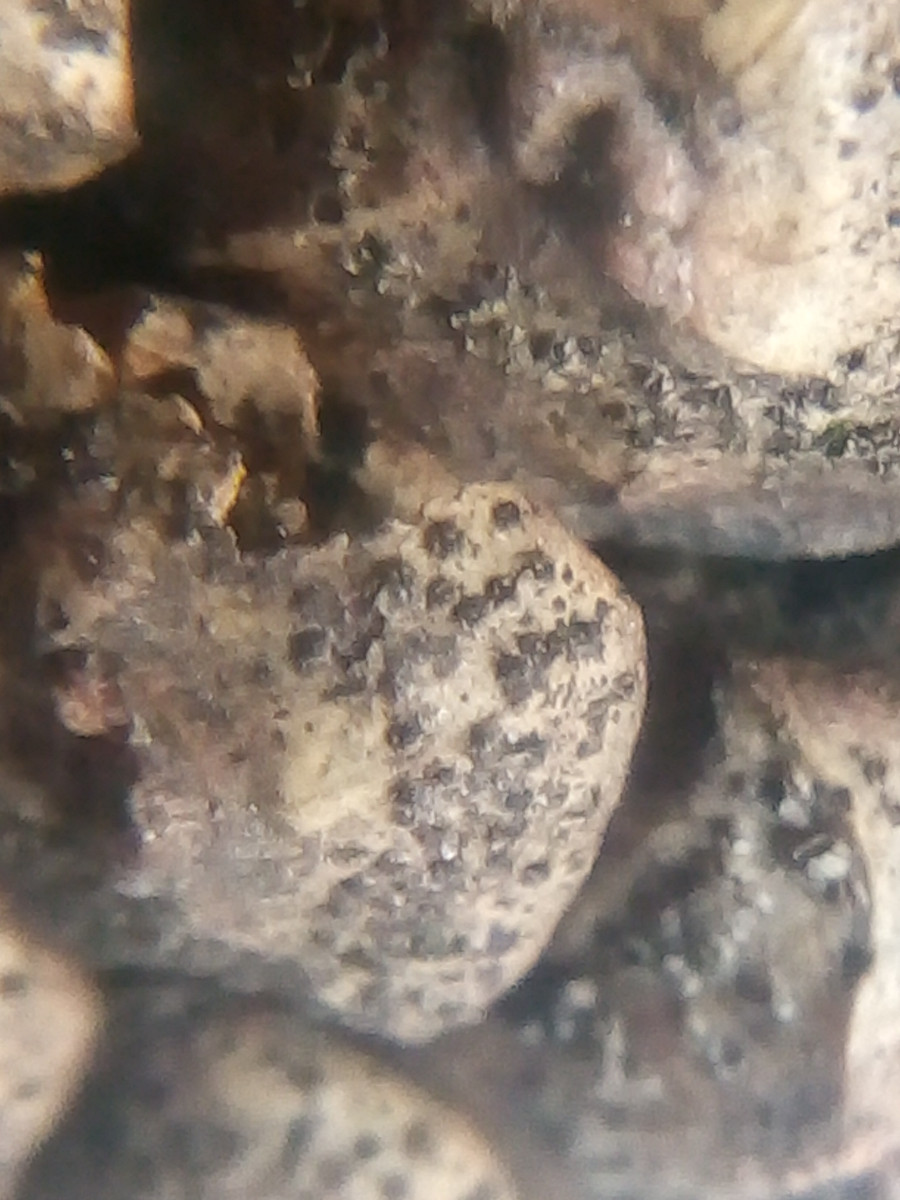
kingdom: Fungi
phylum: Ascomycota
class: Dothideomycetes
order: Botryosphaeriales
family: Botryosphaeriaceae
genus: Sphaeropsis
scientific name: Sphaeropsis sapinea
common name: Sphaeropsis blight
